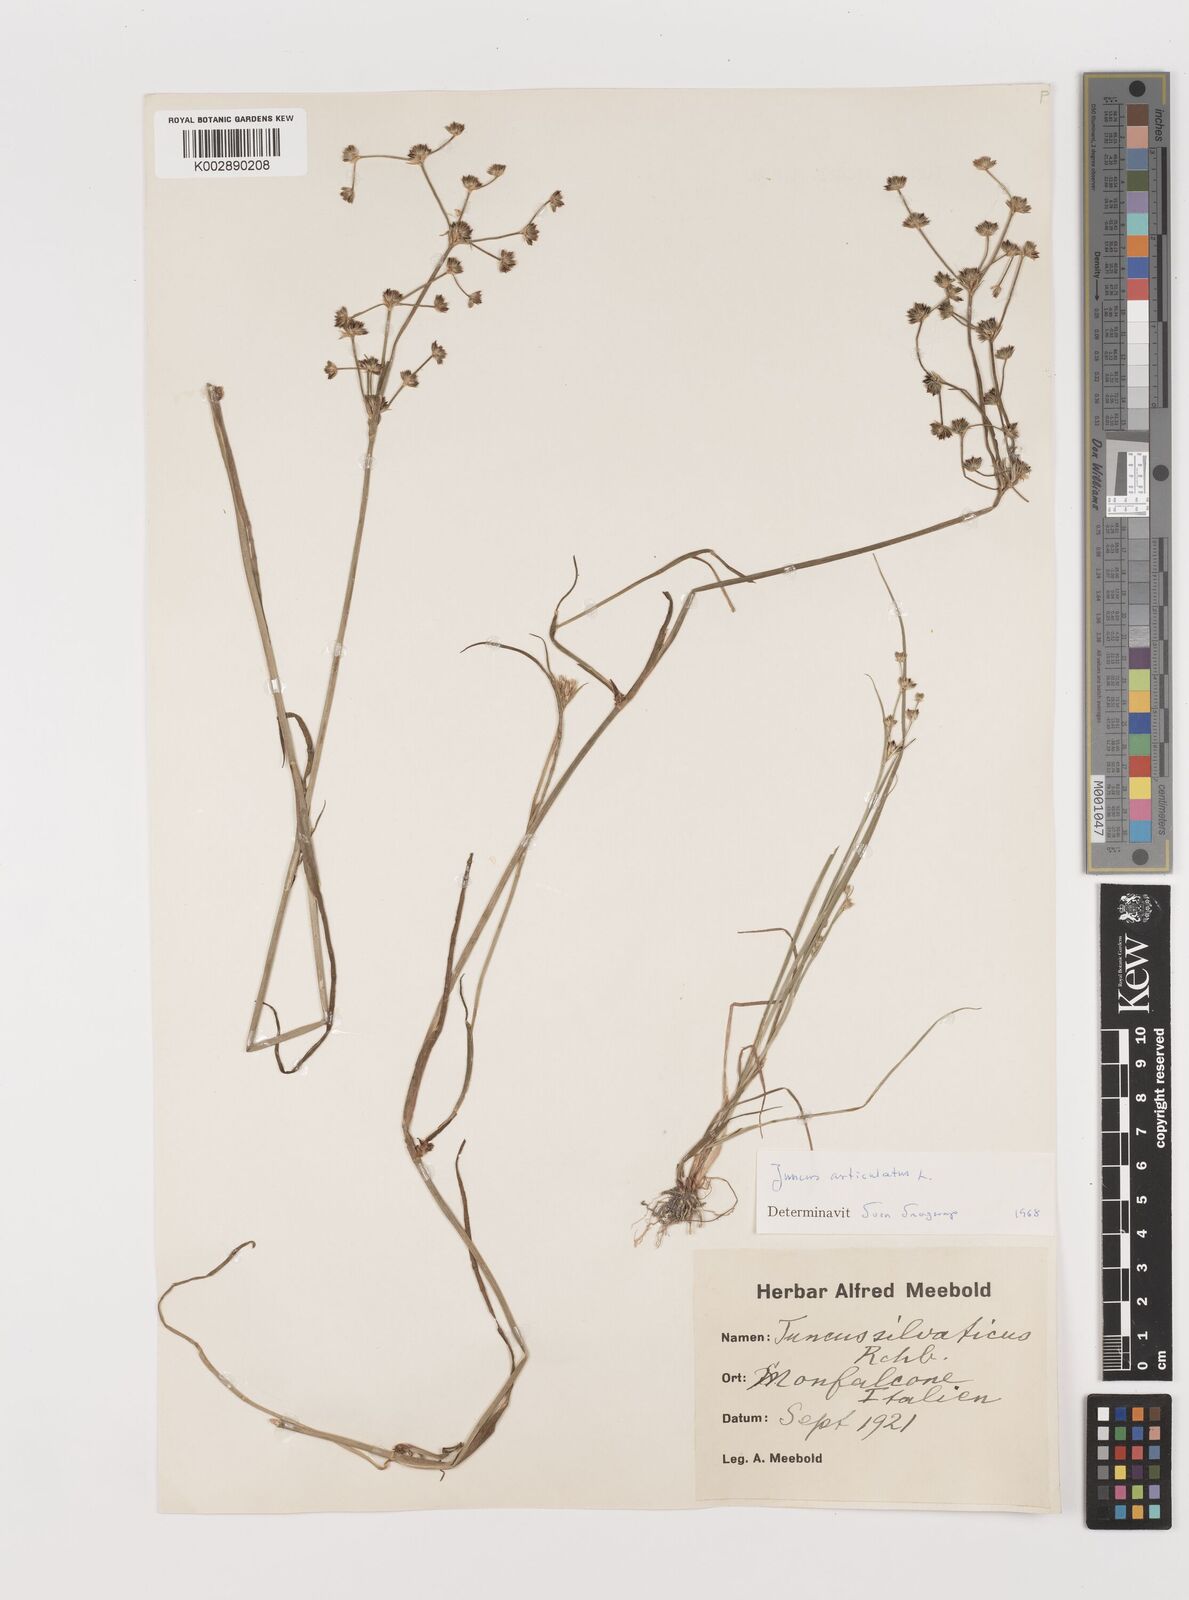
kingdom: Plantae
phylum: Tracheophyta
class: Liliopsida
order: Poales
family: Juncaceae
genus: Juncus
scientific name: Juncus articulatus
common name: Jointed rush
